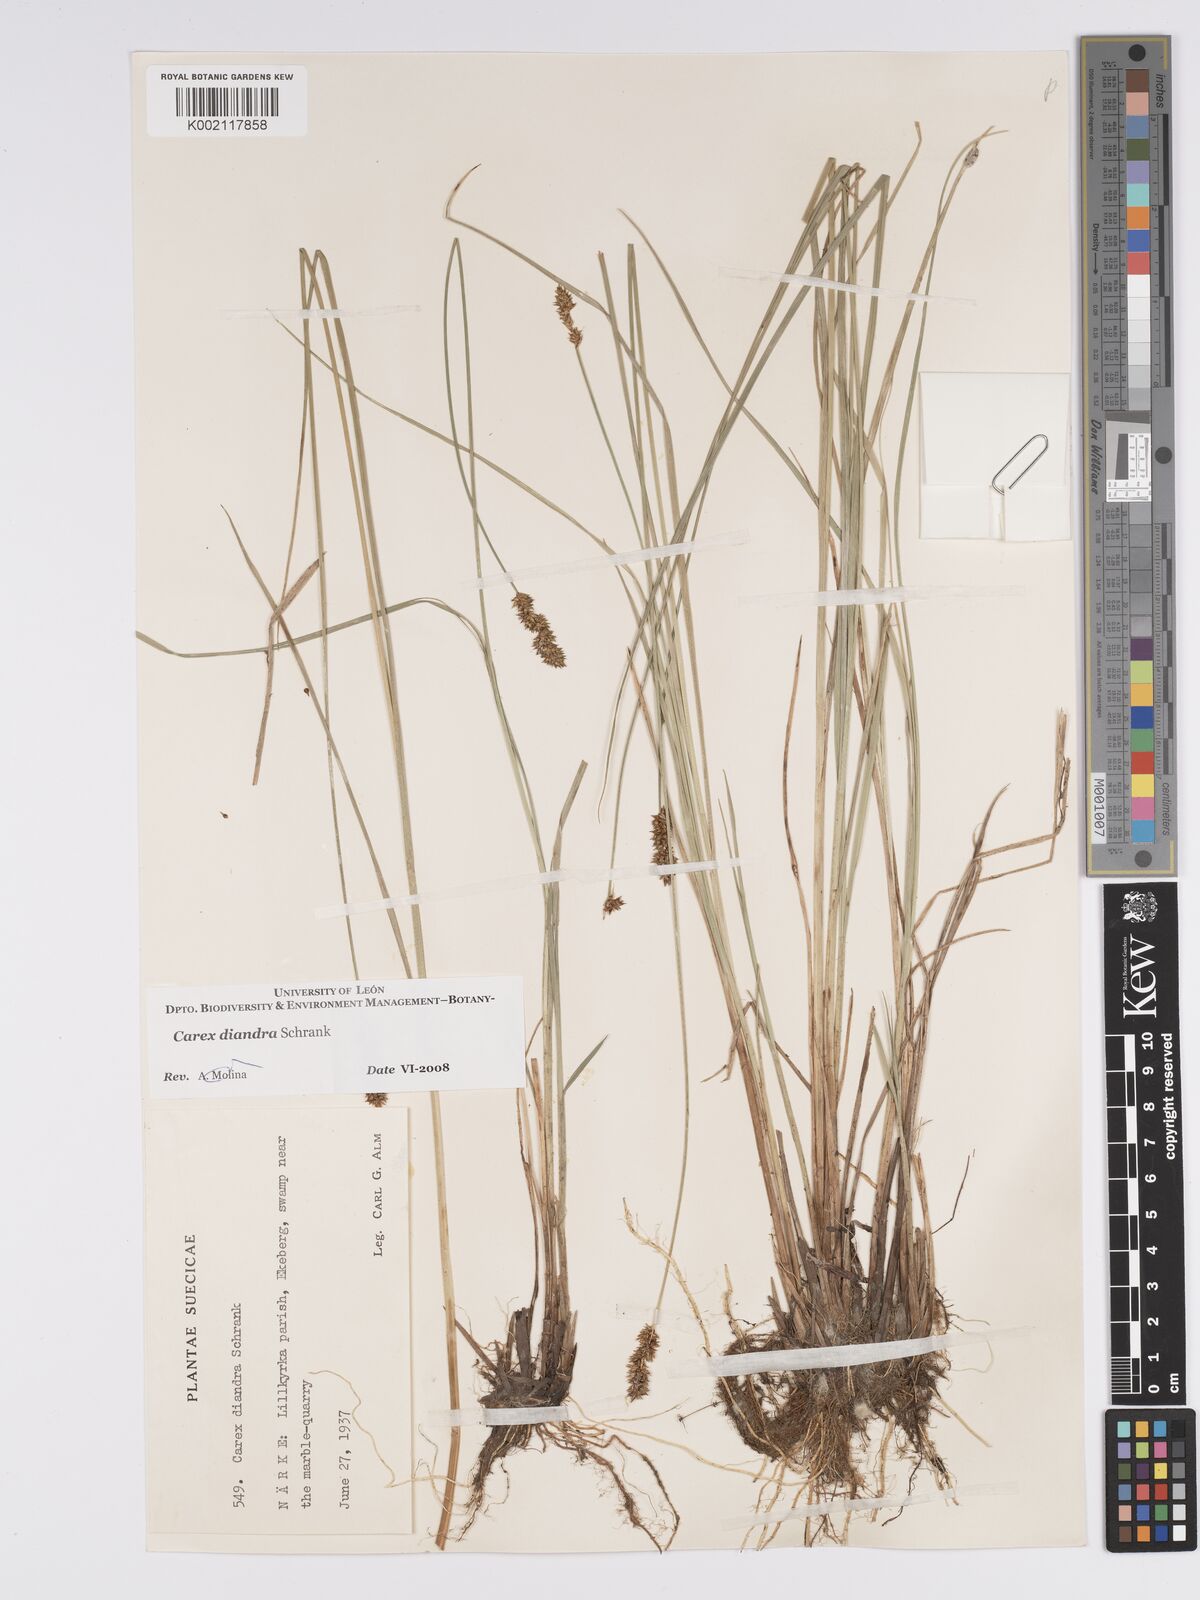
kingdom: Plantae
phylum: Tracheophyta
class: Liliopsida
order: Poales
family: Cyperaceae
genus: Carex
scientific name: Carex diandra
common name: Lesser tussock-sedge
